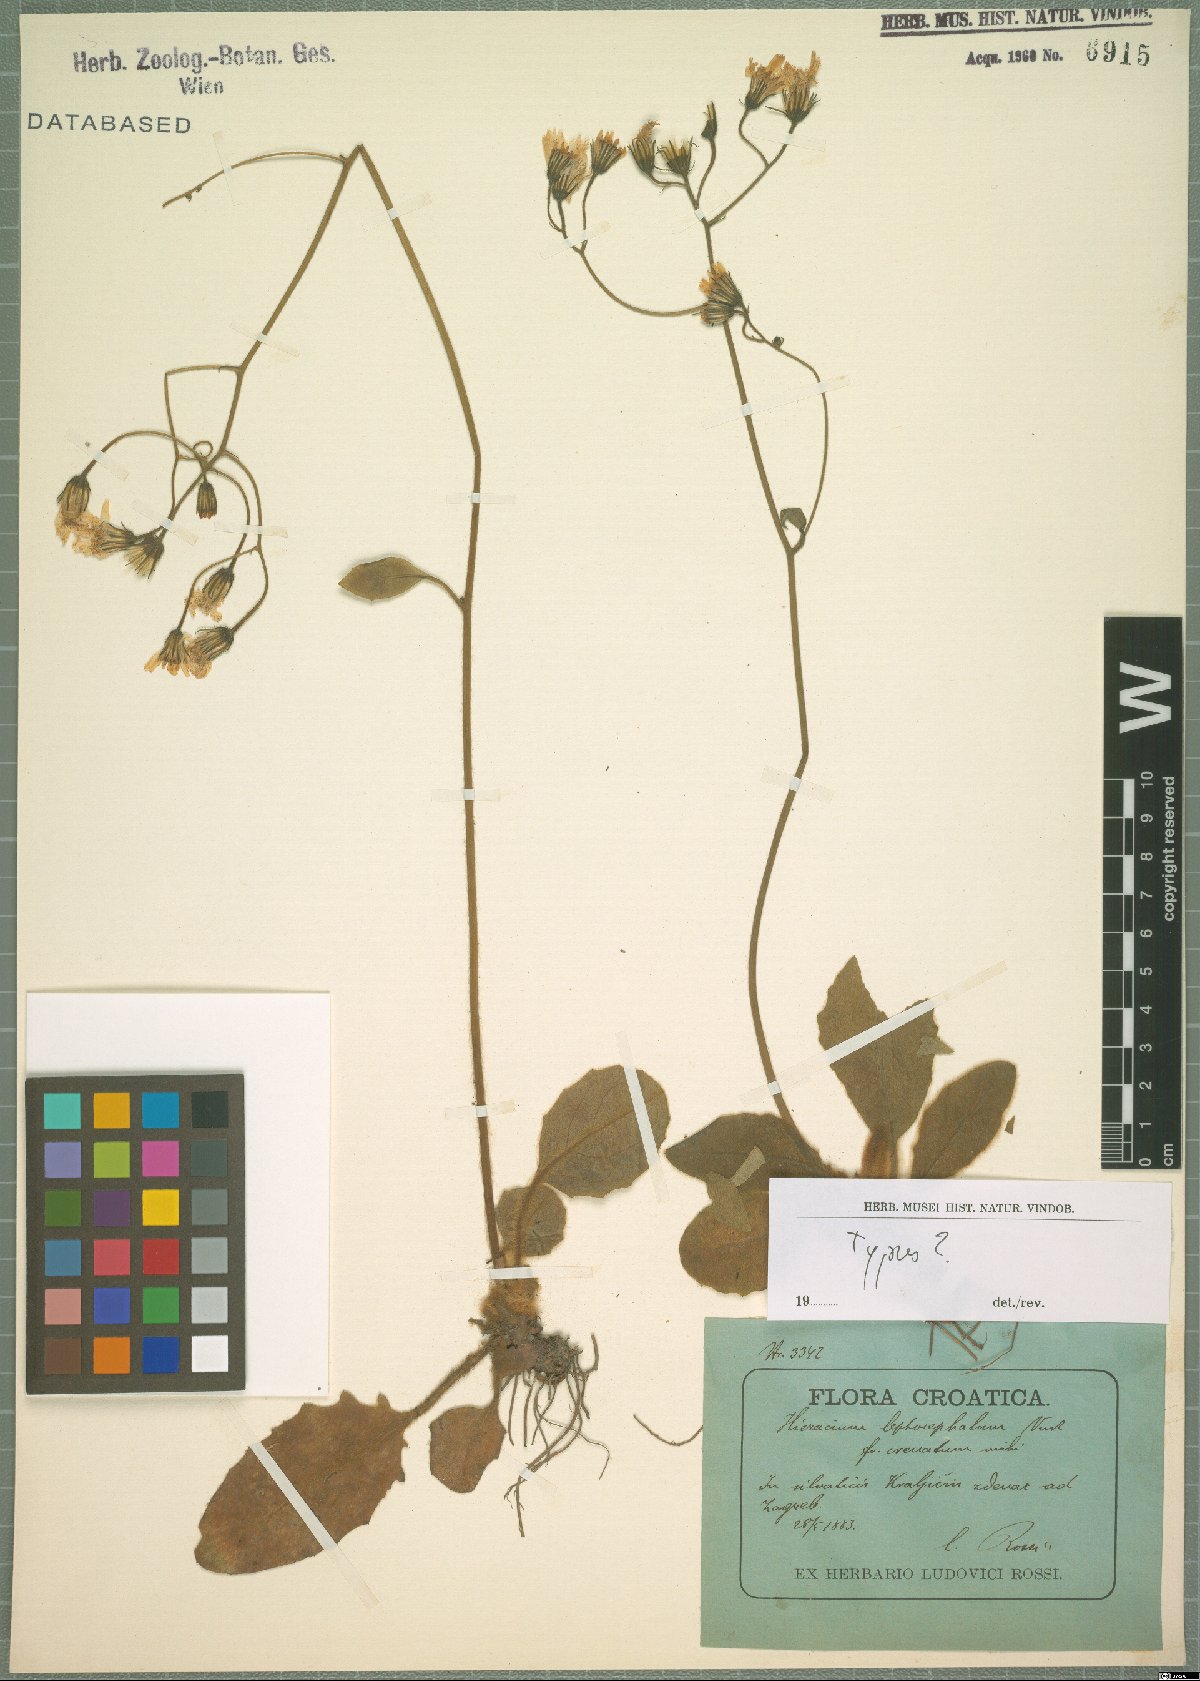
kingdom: Plantae
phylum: Tracheophyta
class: Magnoliopsida
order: Asterales
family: Asteraceae
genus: Hieracium
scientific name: Hieracium leptocephalum
